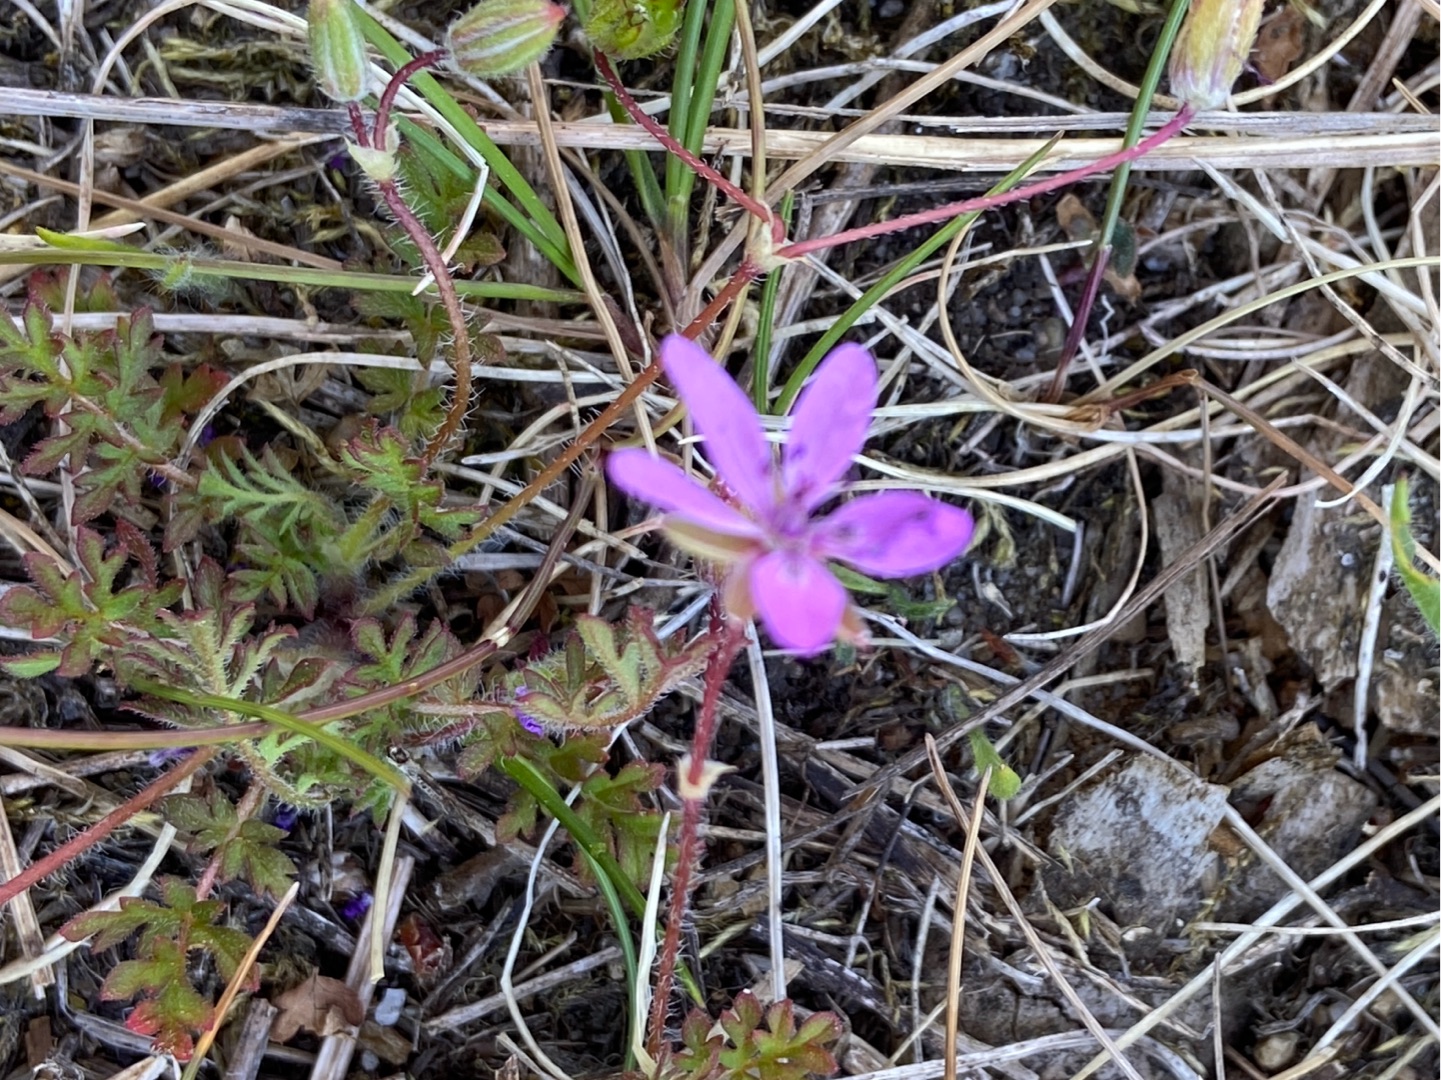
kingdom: Plantae
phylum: Tracheophyta
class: Magnoliopsida
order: Geraniales
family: Geraniaceae
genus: Erodium
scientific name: Erodium cicutarium
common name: Hejrenæb
